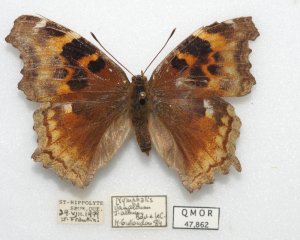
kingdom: Animalia
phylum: Arthropoda
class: Insecta
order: Lepidoptera
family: Nymphalidae
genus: Polygonia
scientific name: Polygonia vaualbum
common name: Compton Tortoiseshell
